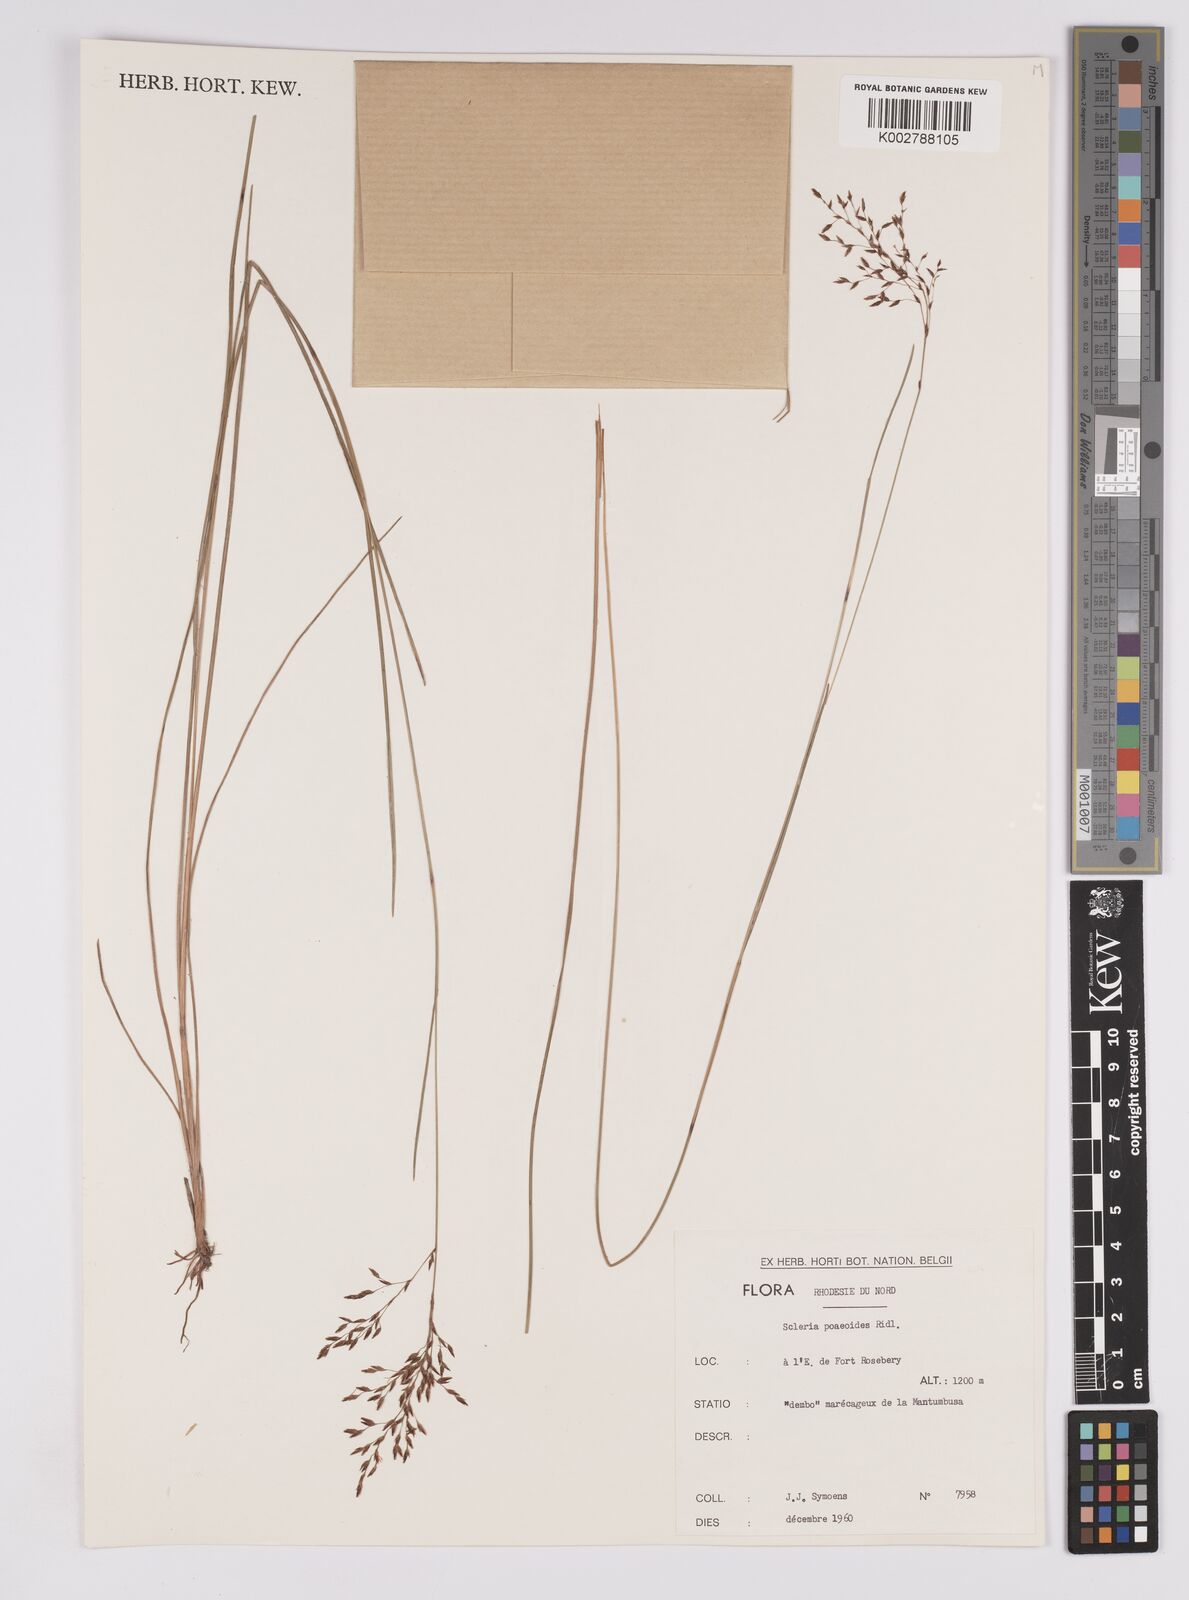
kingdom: Plantae
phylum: Tracheophyta
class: Liliopsida
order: Poales
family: Cyperaceae
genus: Scleria
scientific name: Scleria pooides
